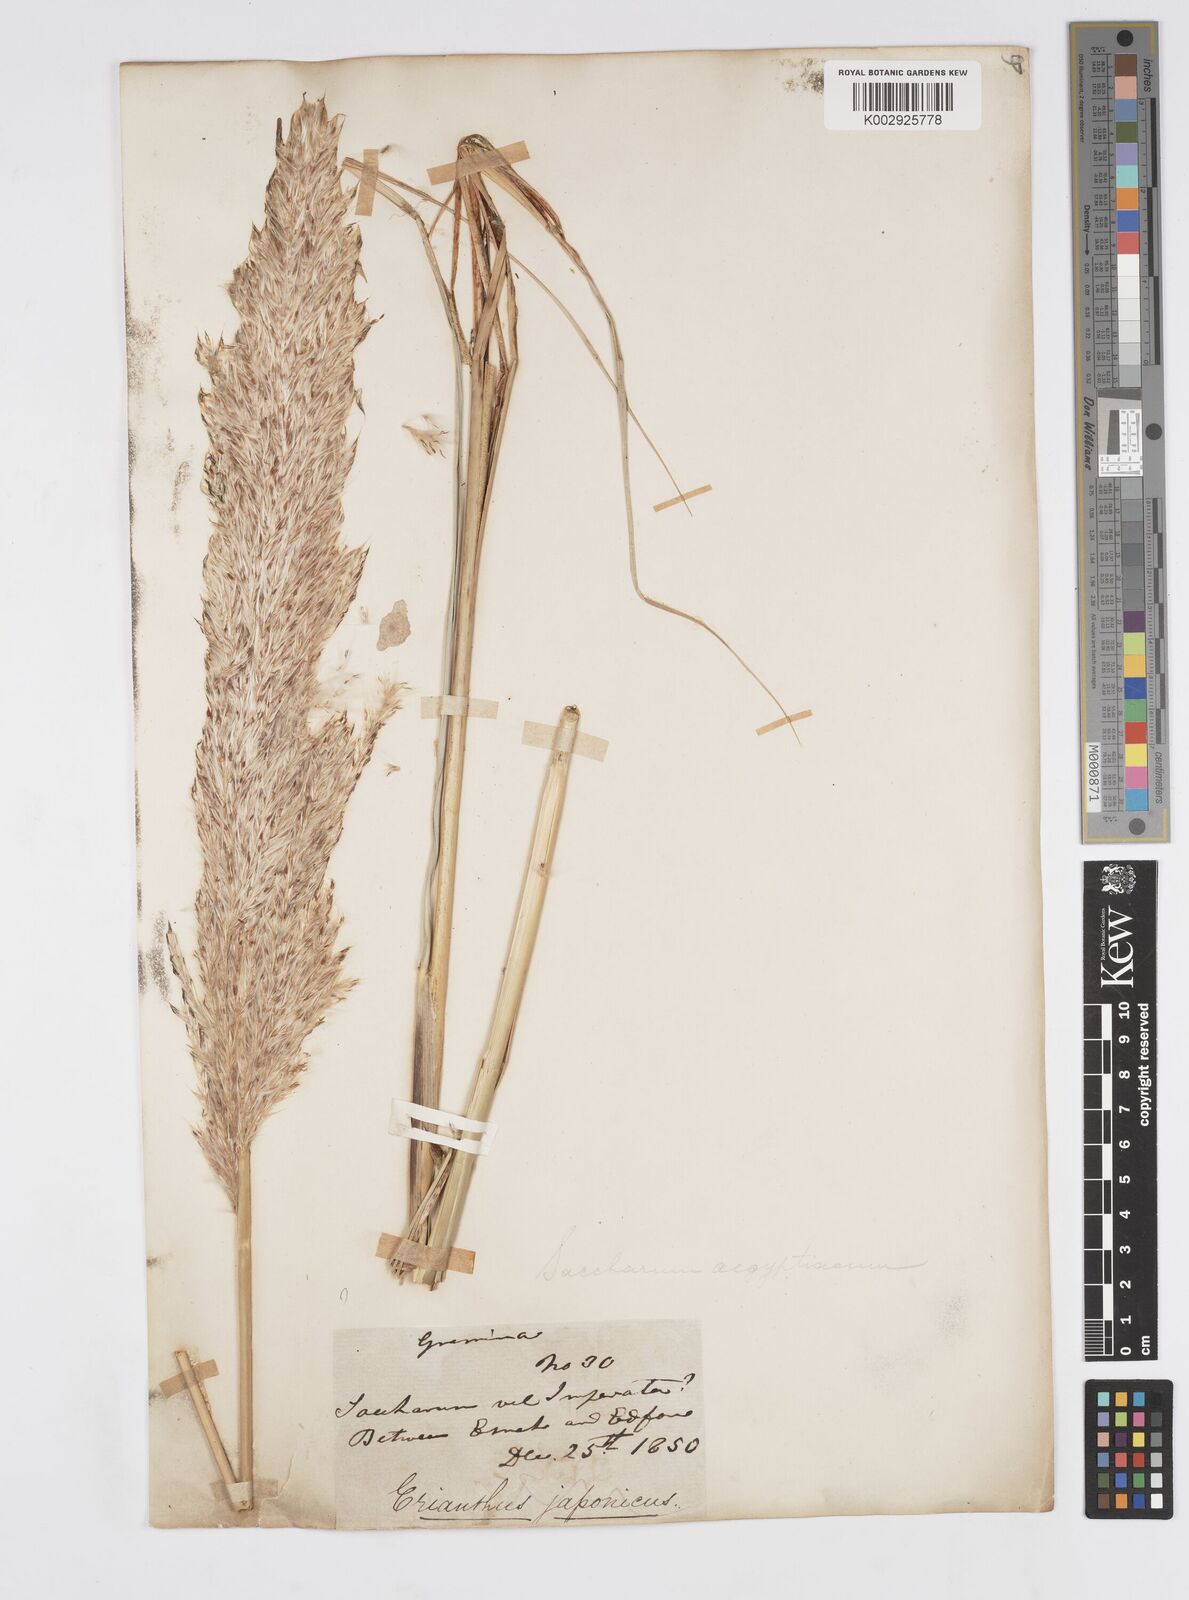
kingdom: Plantae
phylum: Tracheophyta
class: Liliopsida
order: Poales
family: Poaceae
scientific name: Poaceae
